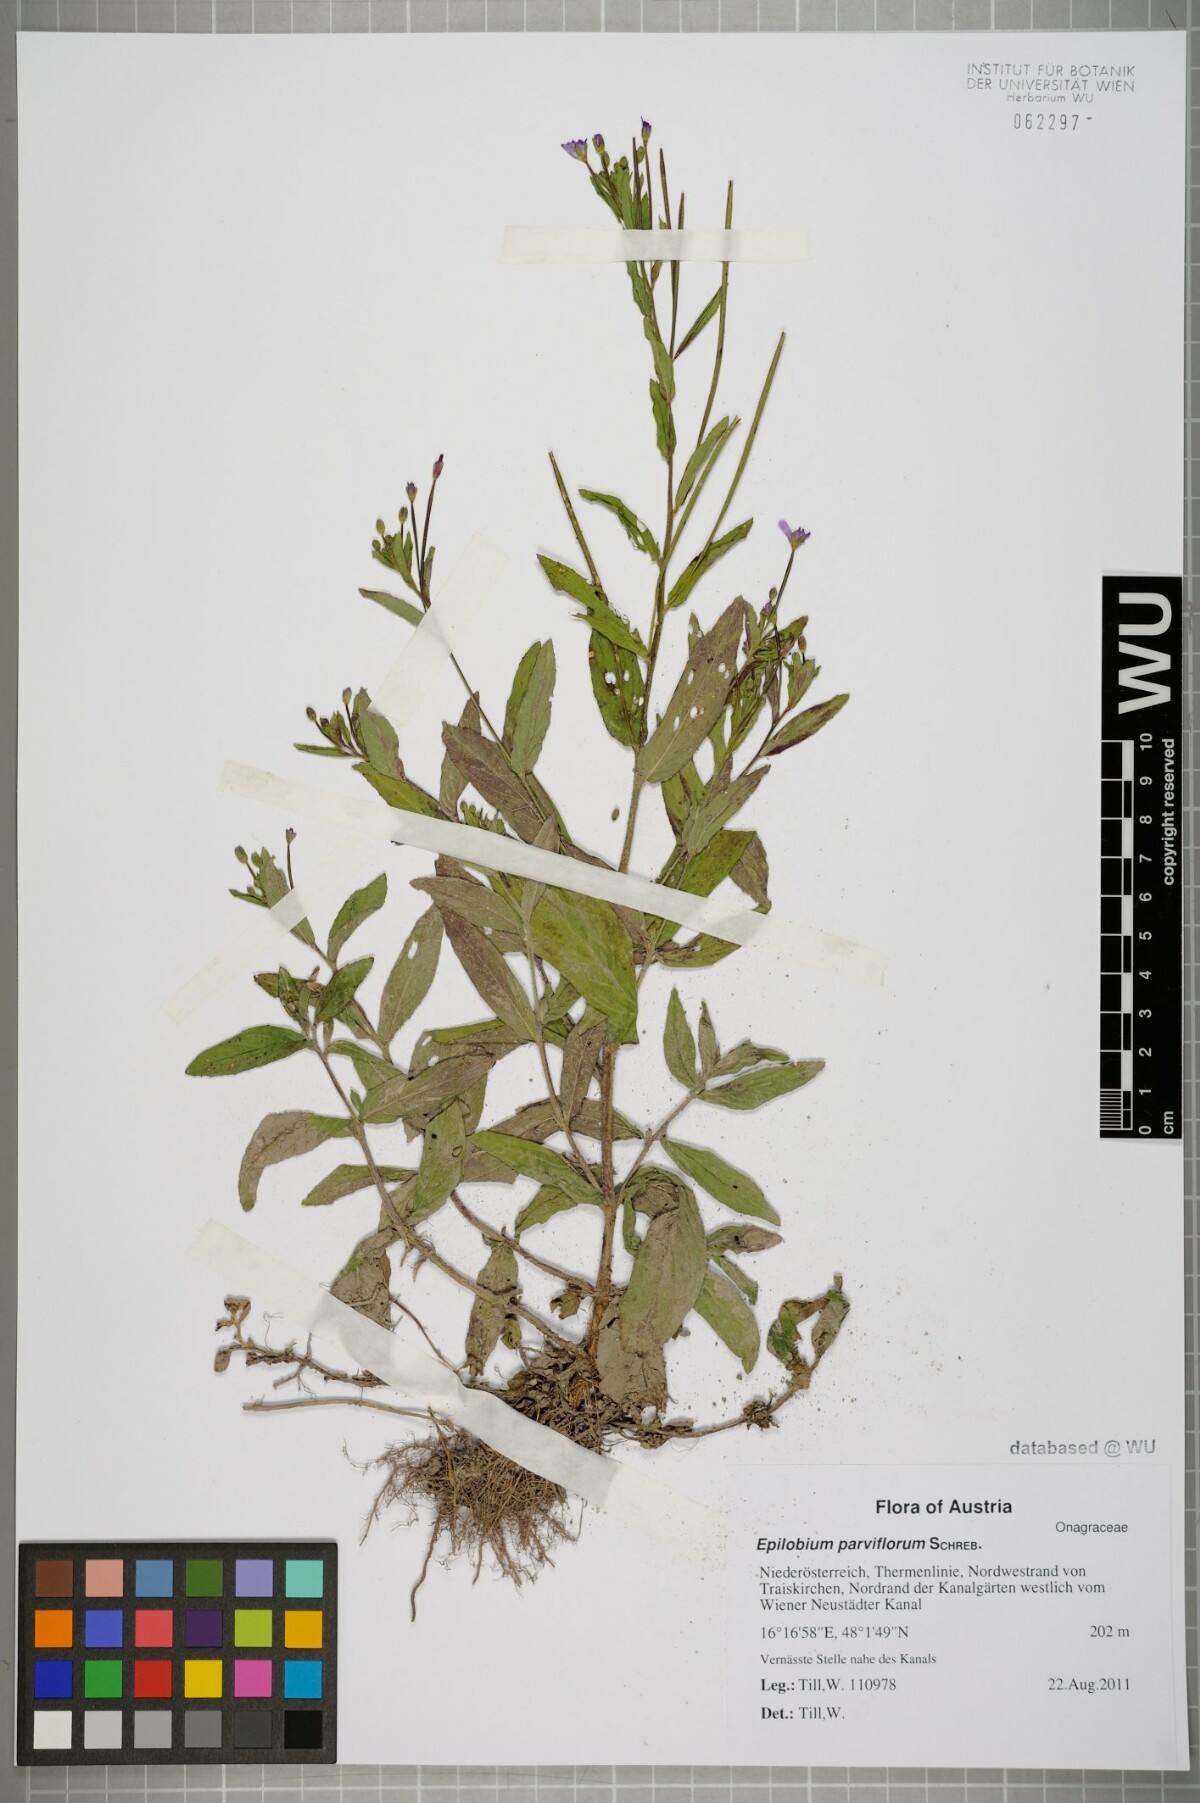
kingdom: Plantae
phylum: Tracheophyta
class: Magnoliopsida
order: Myrtales
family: Onagraceae
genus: Epilobium
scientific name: Epilobium parviflorum
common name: Hoary willowherb
